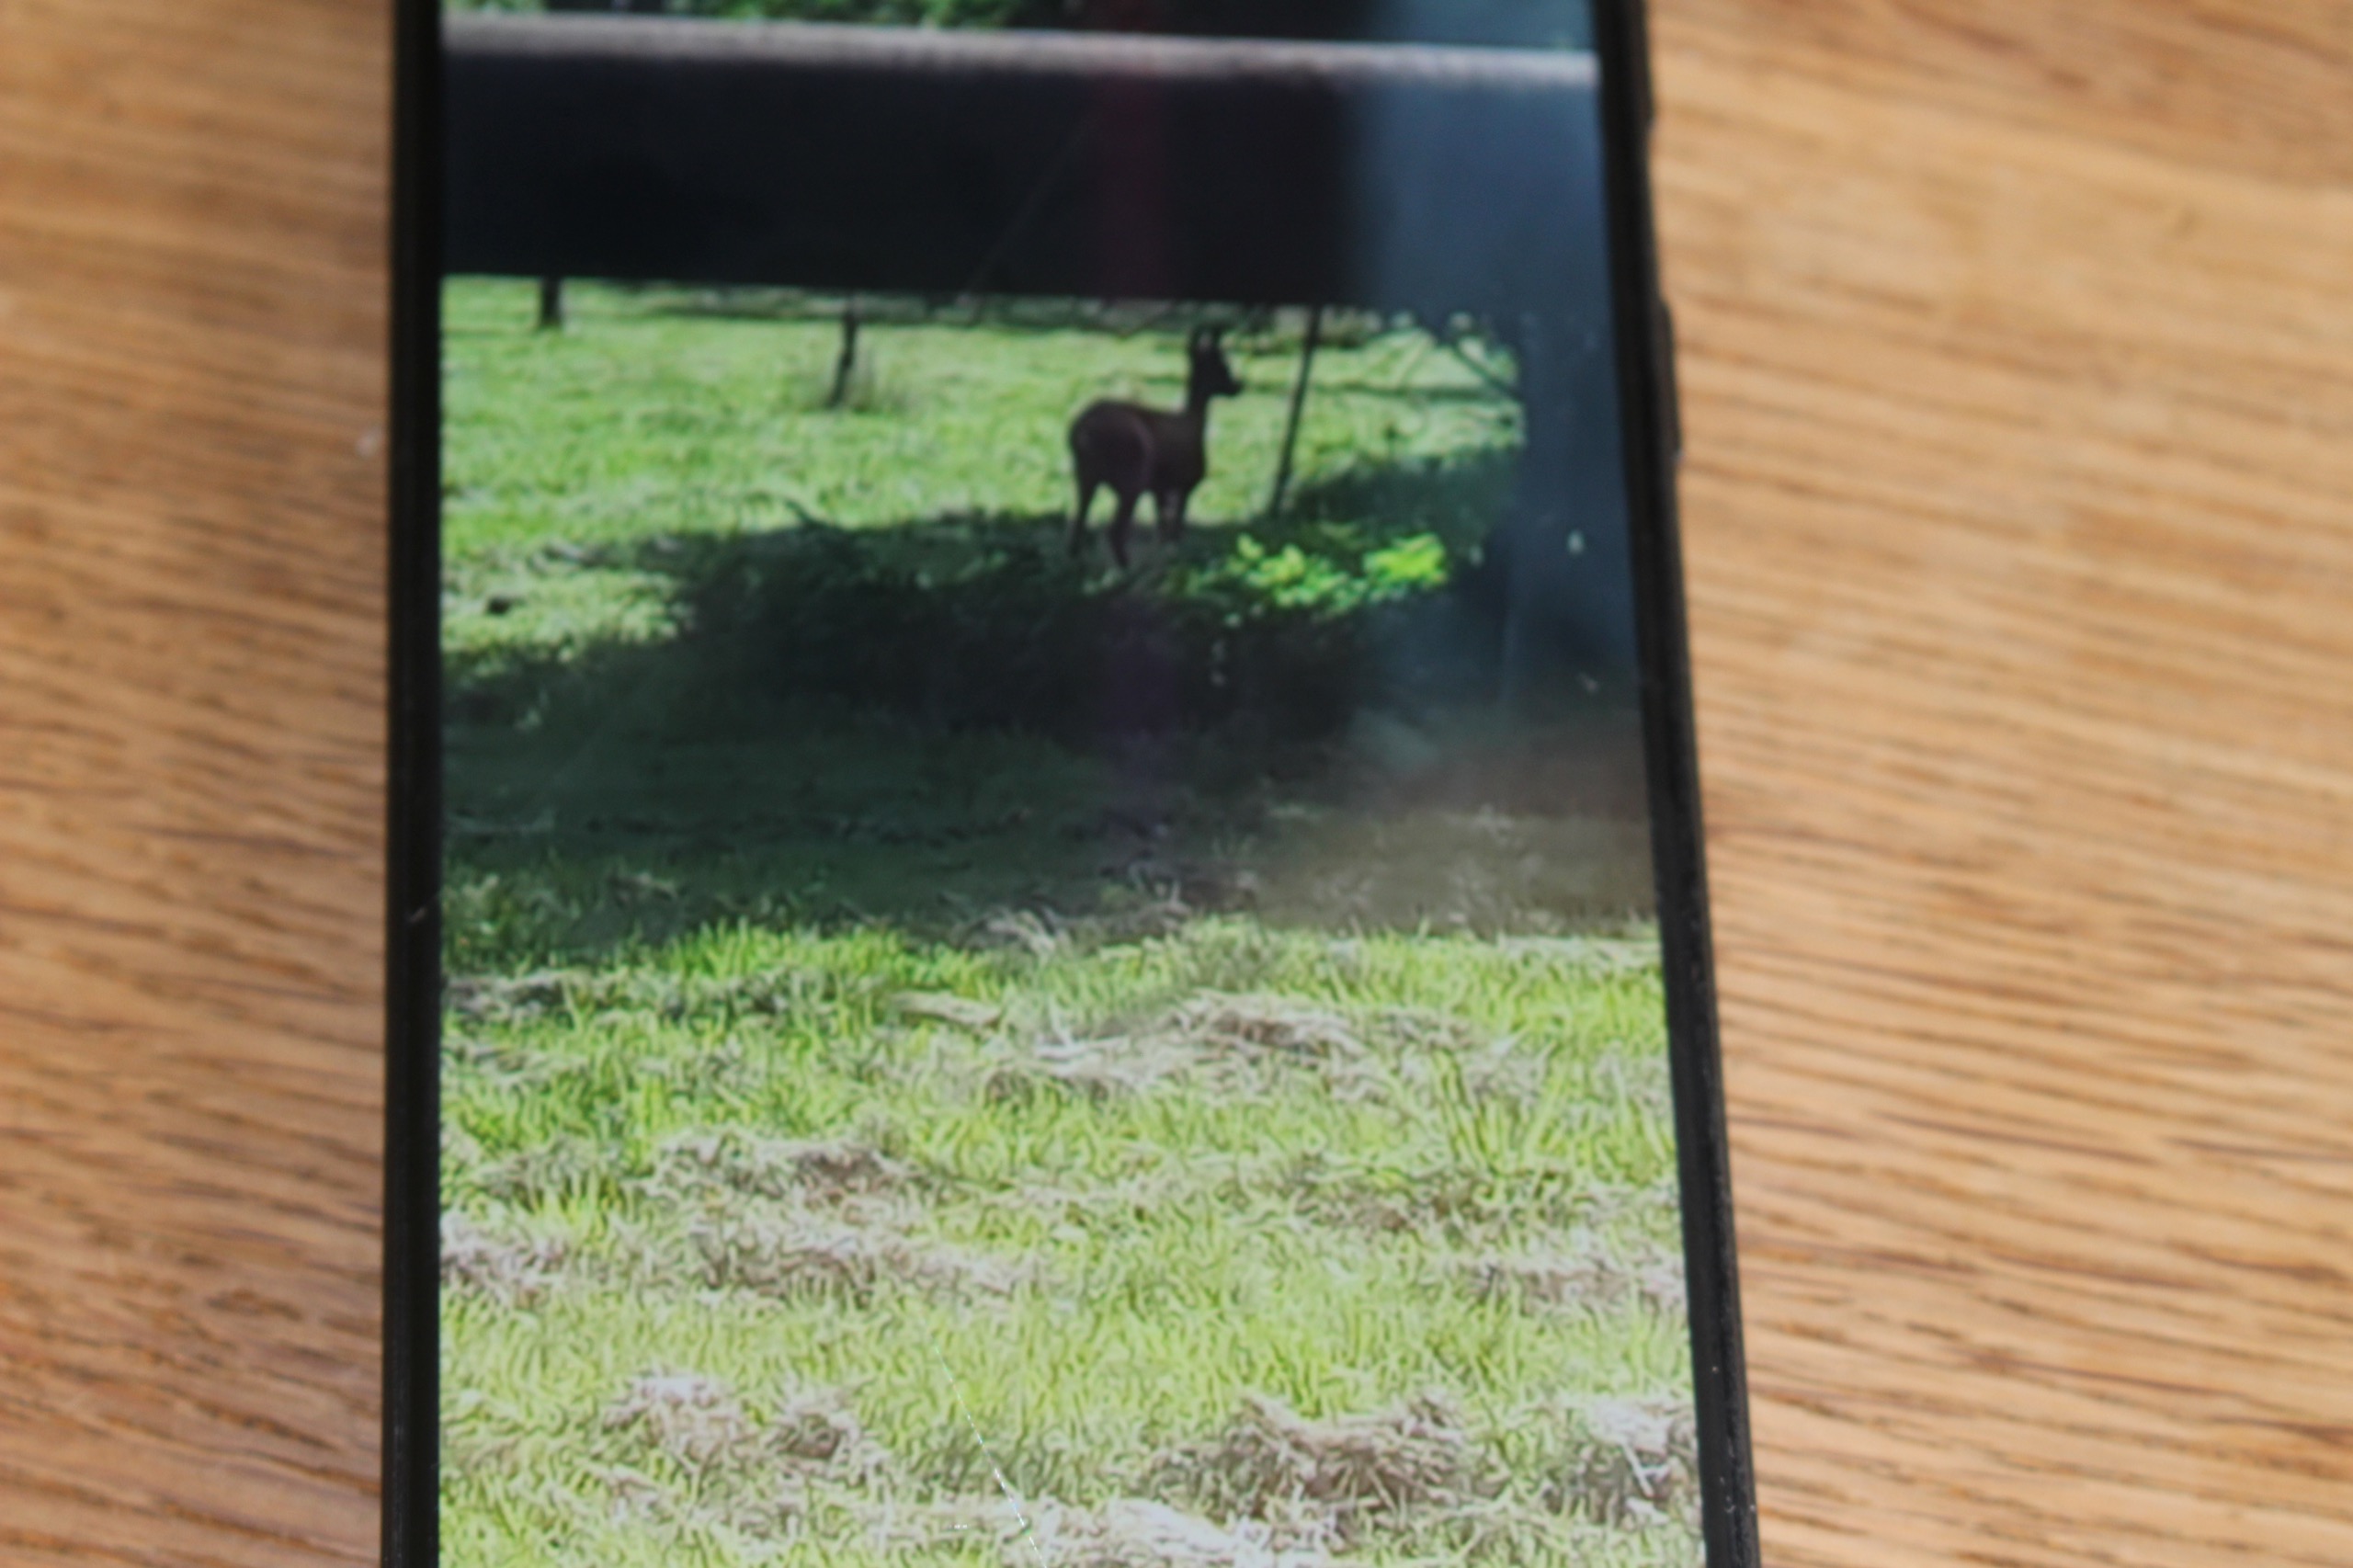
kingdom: Animalia
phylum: Chordata
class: Mammalia
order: Artiodactyla
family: Cervidae
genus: Capreolus
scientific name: Capreolus capreolus
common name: Rådyr
